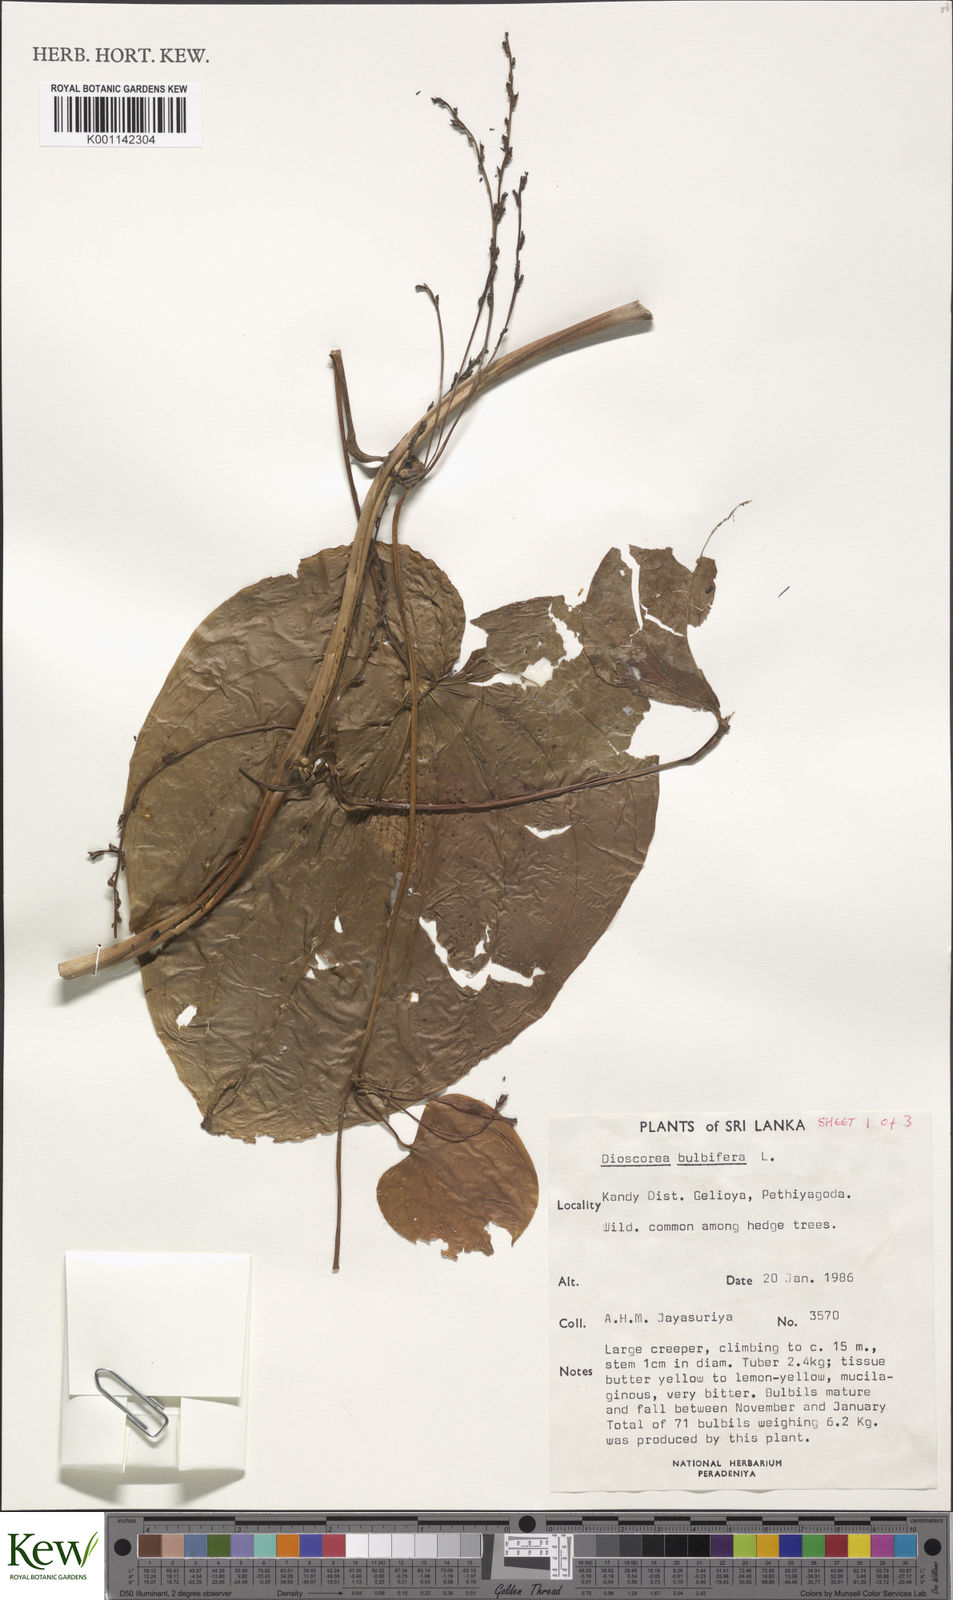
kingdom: Plantae
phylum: Tracheophyta
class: Liliopsida
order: Dioscoreales
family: Dioscoreaceae
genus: Dioscorea
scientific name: Dioscorea bulbifera
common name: Air yam
